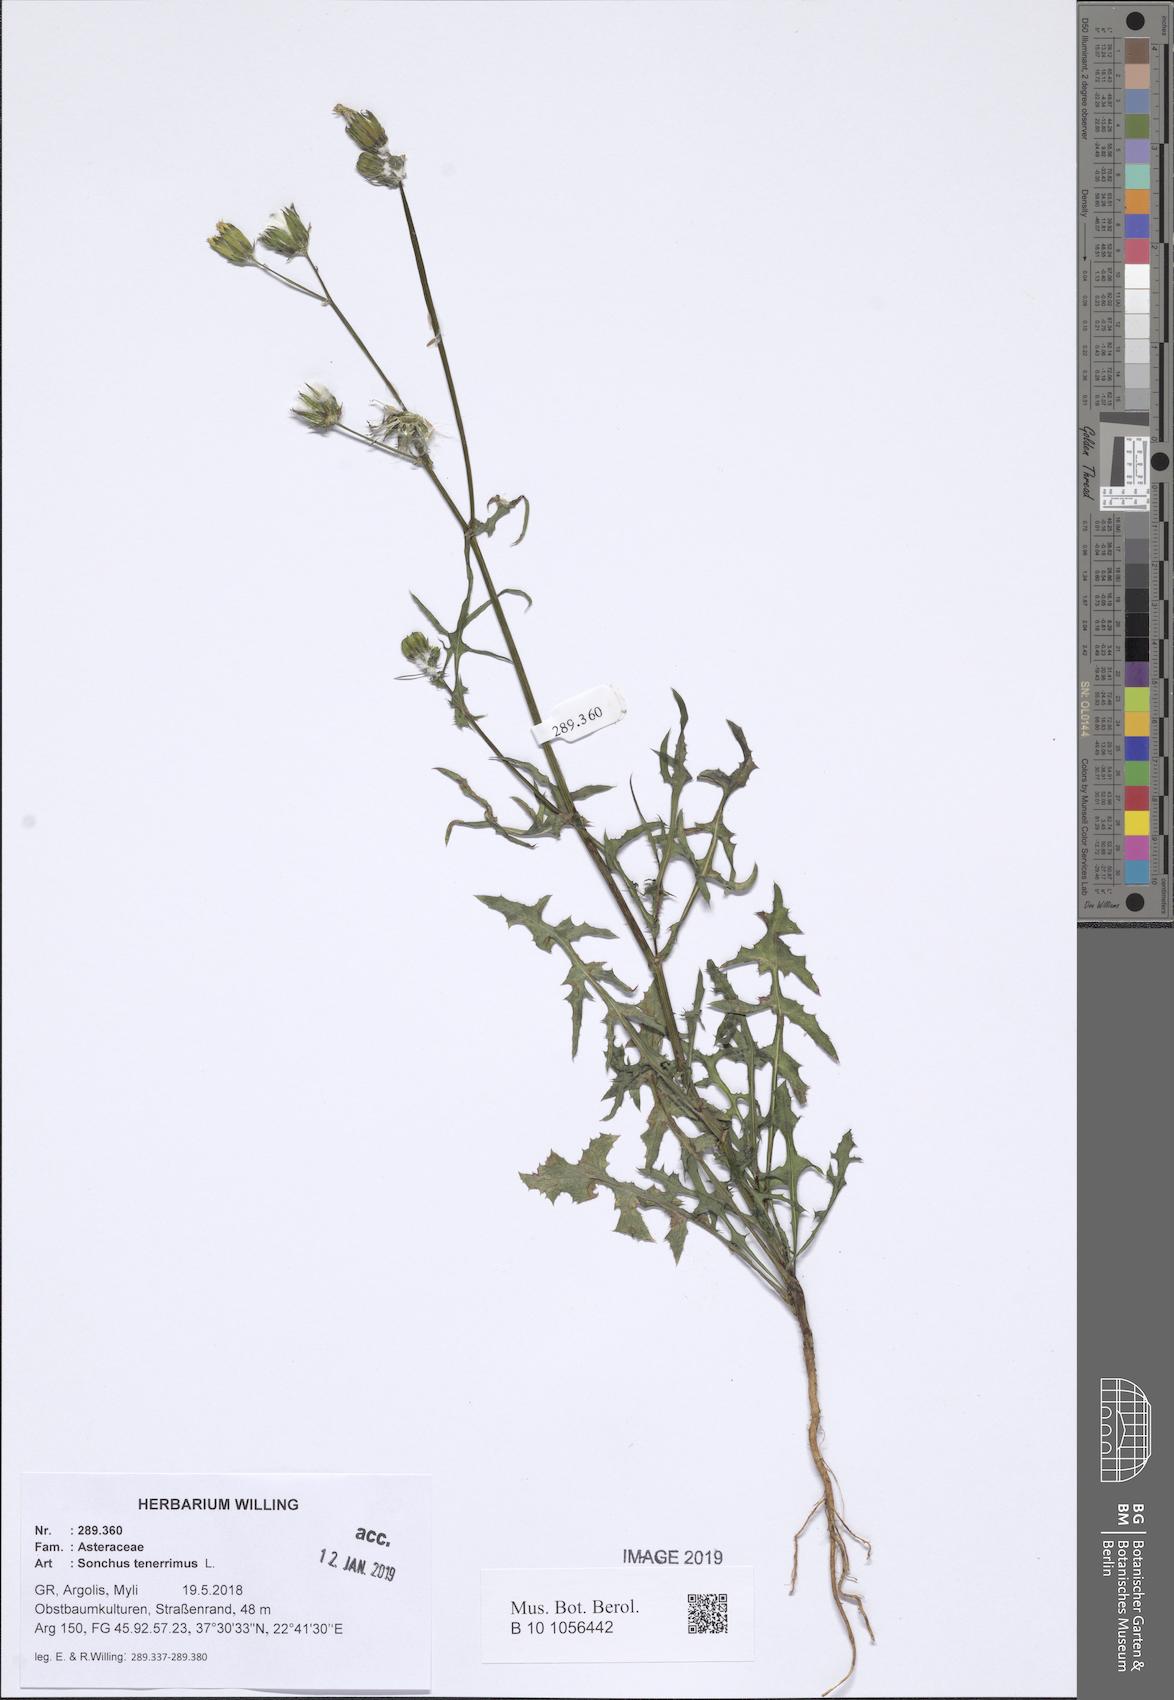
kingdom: Plantae
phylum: Tracheophyta
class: Magnoliopsida
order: Asterales
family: Asteraceae
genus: Sonchus
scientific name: Sonchus tenerrimus
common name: Clammy sowthistle
